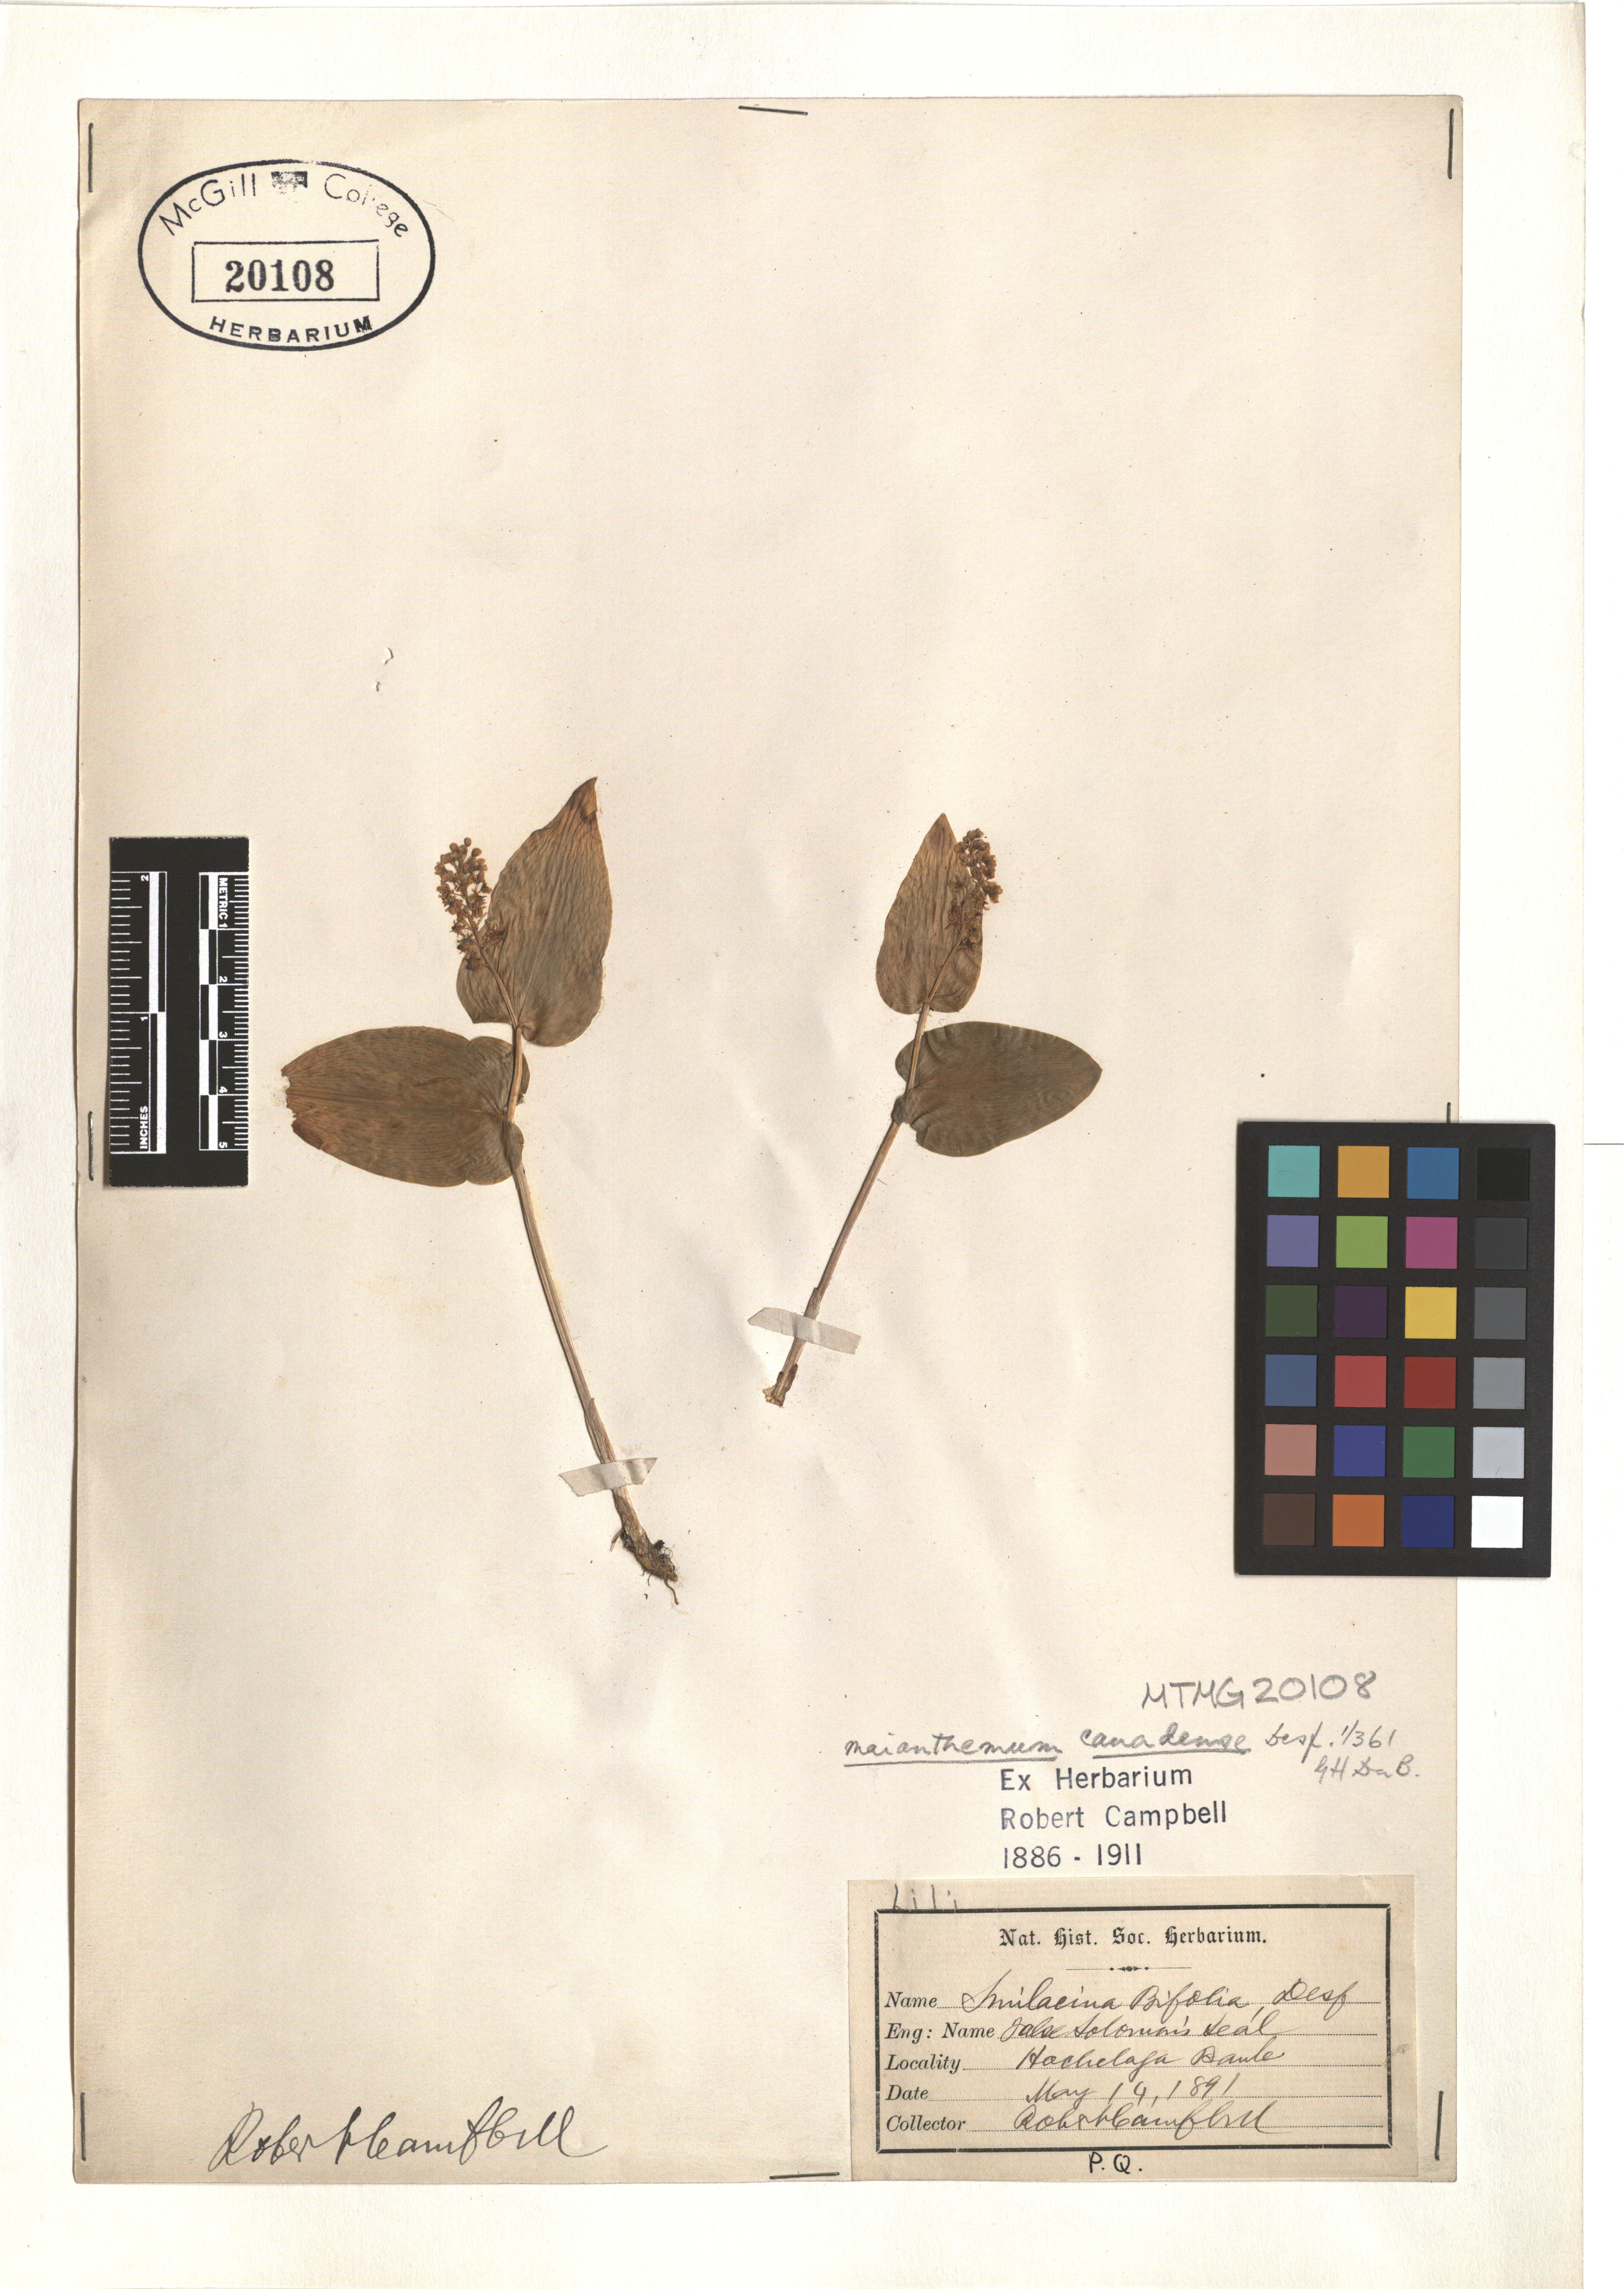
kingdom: Plantae
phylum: Tracheophyta
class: Liliopsida
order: Asparagales
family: Asparagaceae
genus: Maianthemum
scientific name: Maianthemum canadense
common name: False lily-of-the-valley
